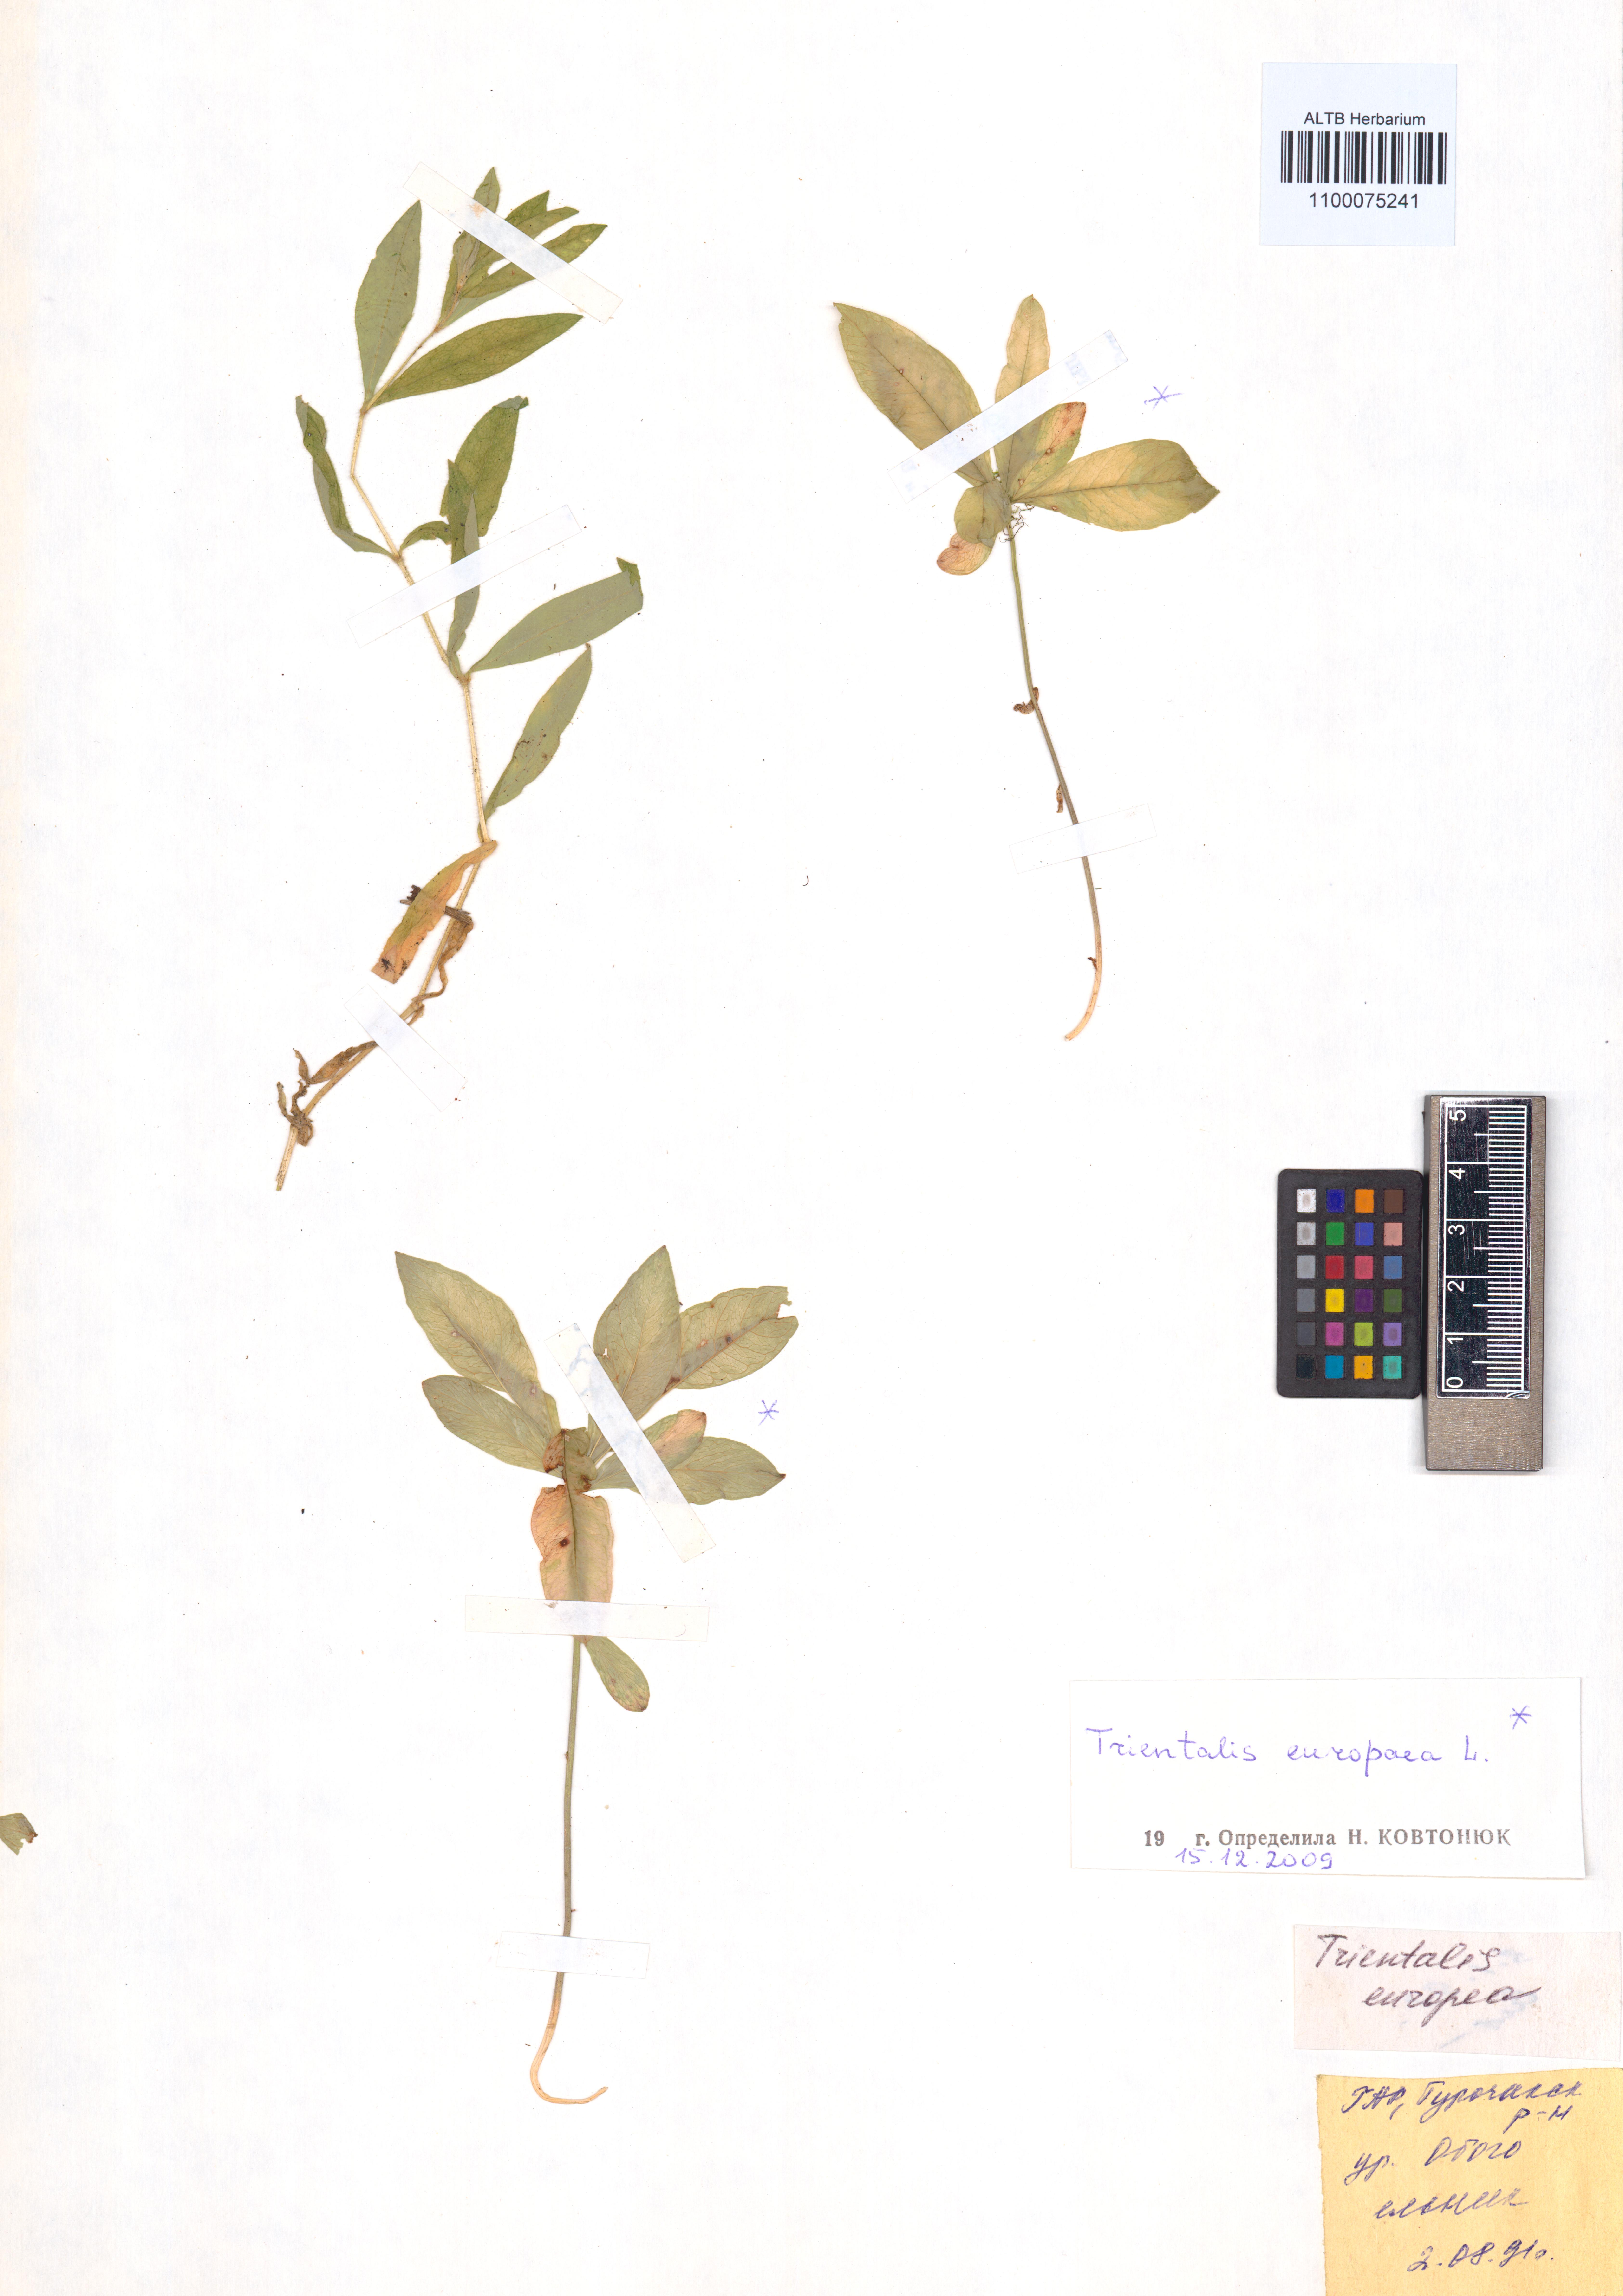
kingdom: Plantae
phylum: Tracheophyta
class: Magnoliopsida
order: Ericales
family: Primulaceae
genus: Lysimachia
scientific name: Lysimachia europaea
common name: Arctic starflower
